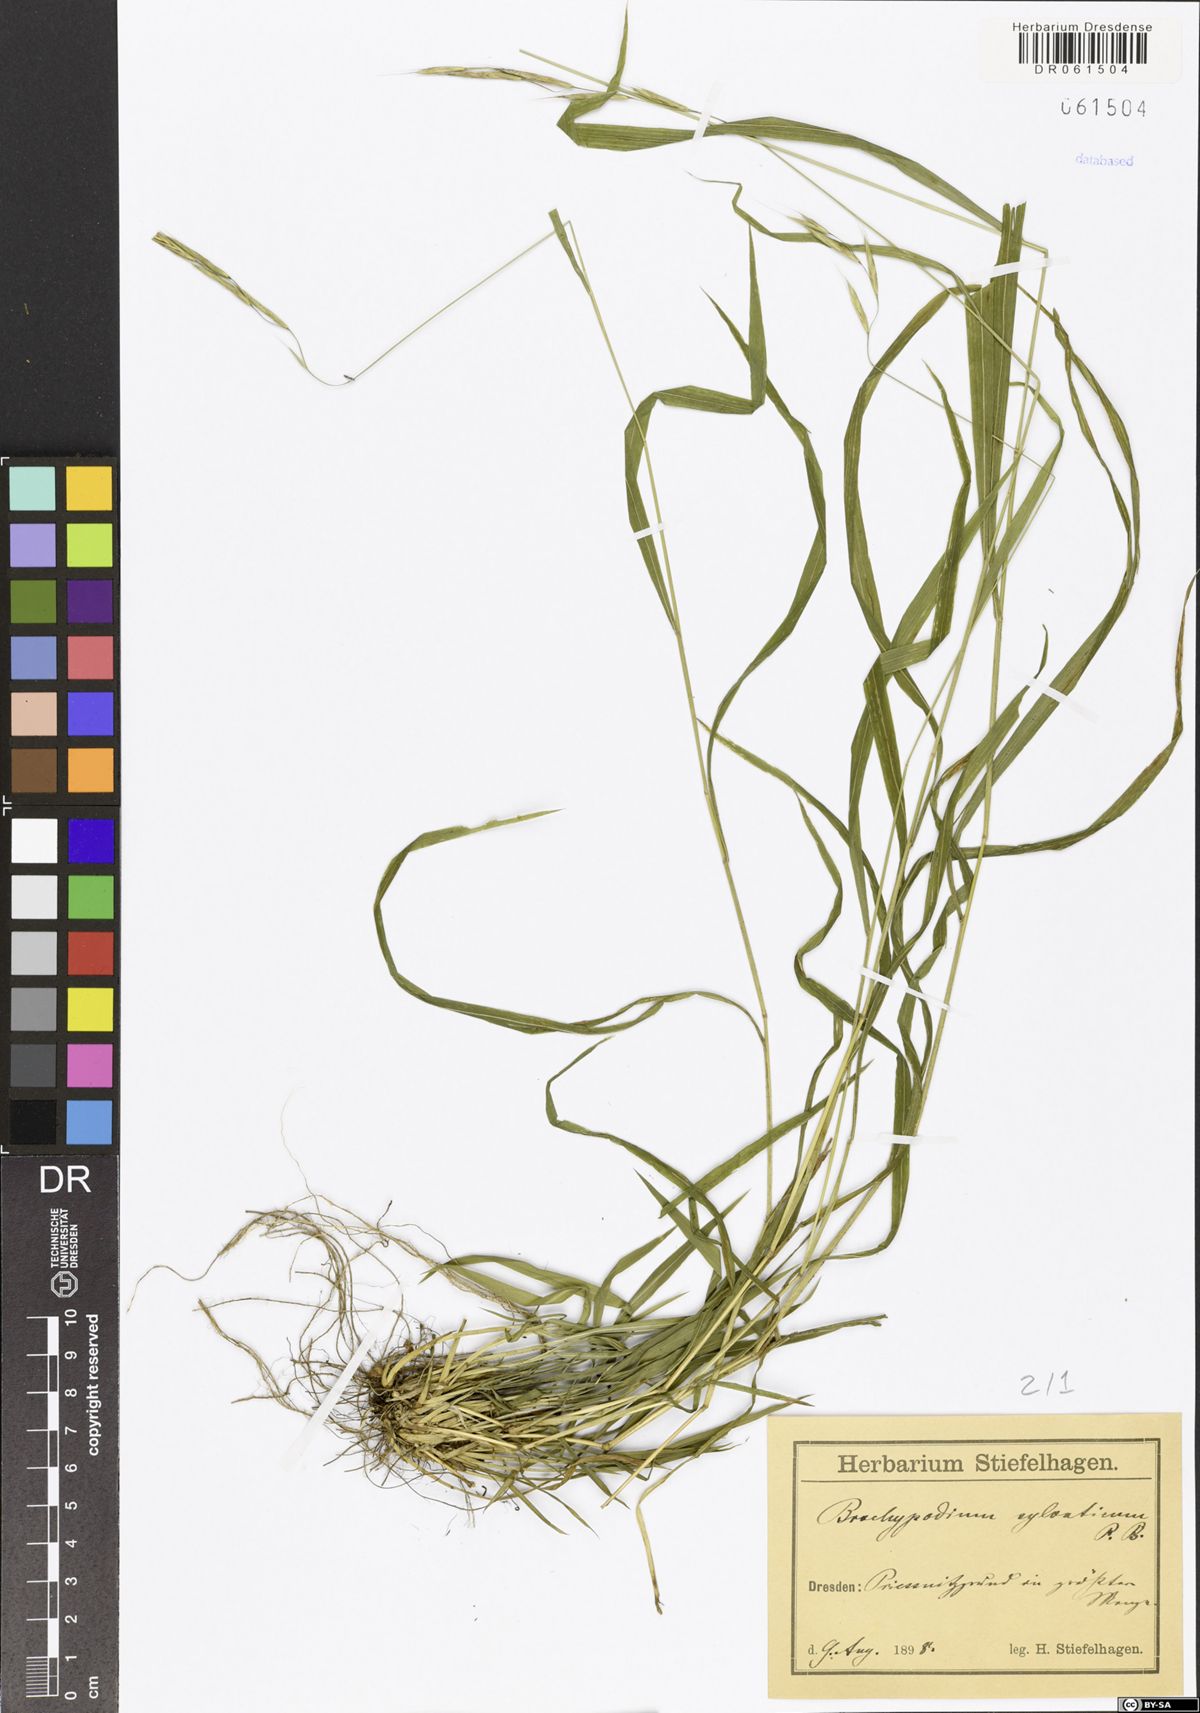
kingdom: Plantae
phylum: Tracheophyta
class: Liliopsida
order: Poales
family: Poaceae
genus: Brachypodium
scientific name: Brachypodium sylvaticum
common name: False-brome
